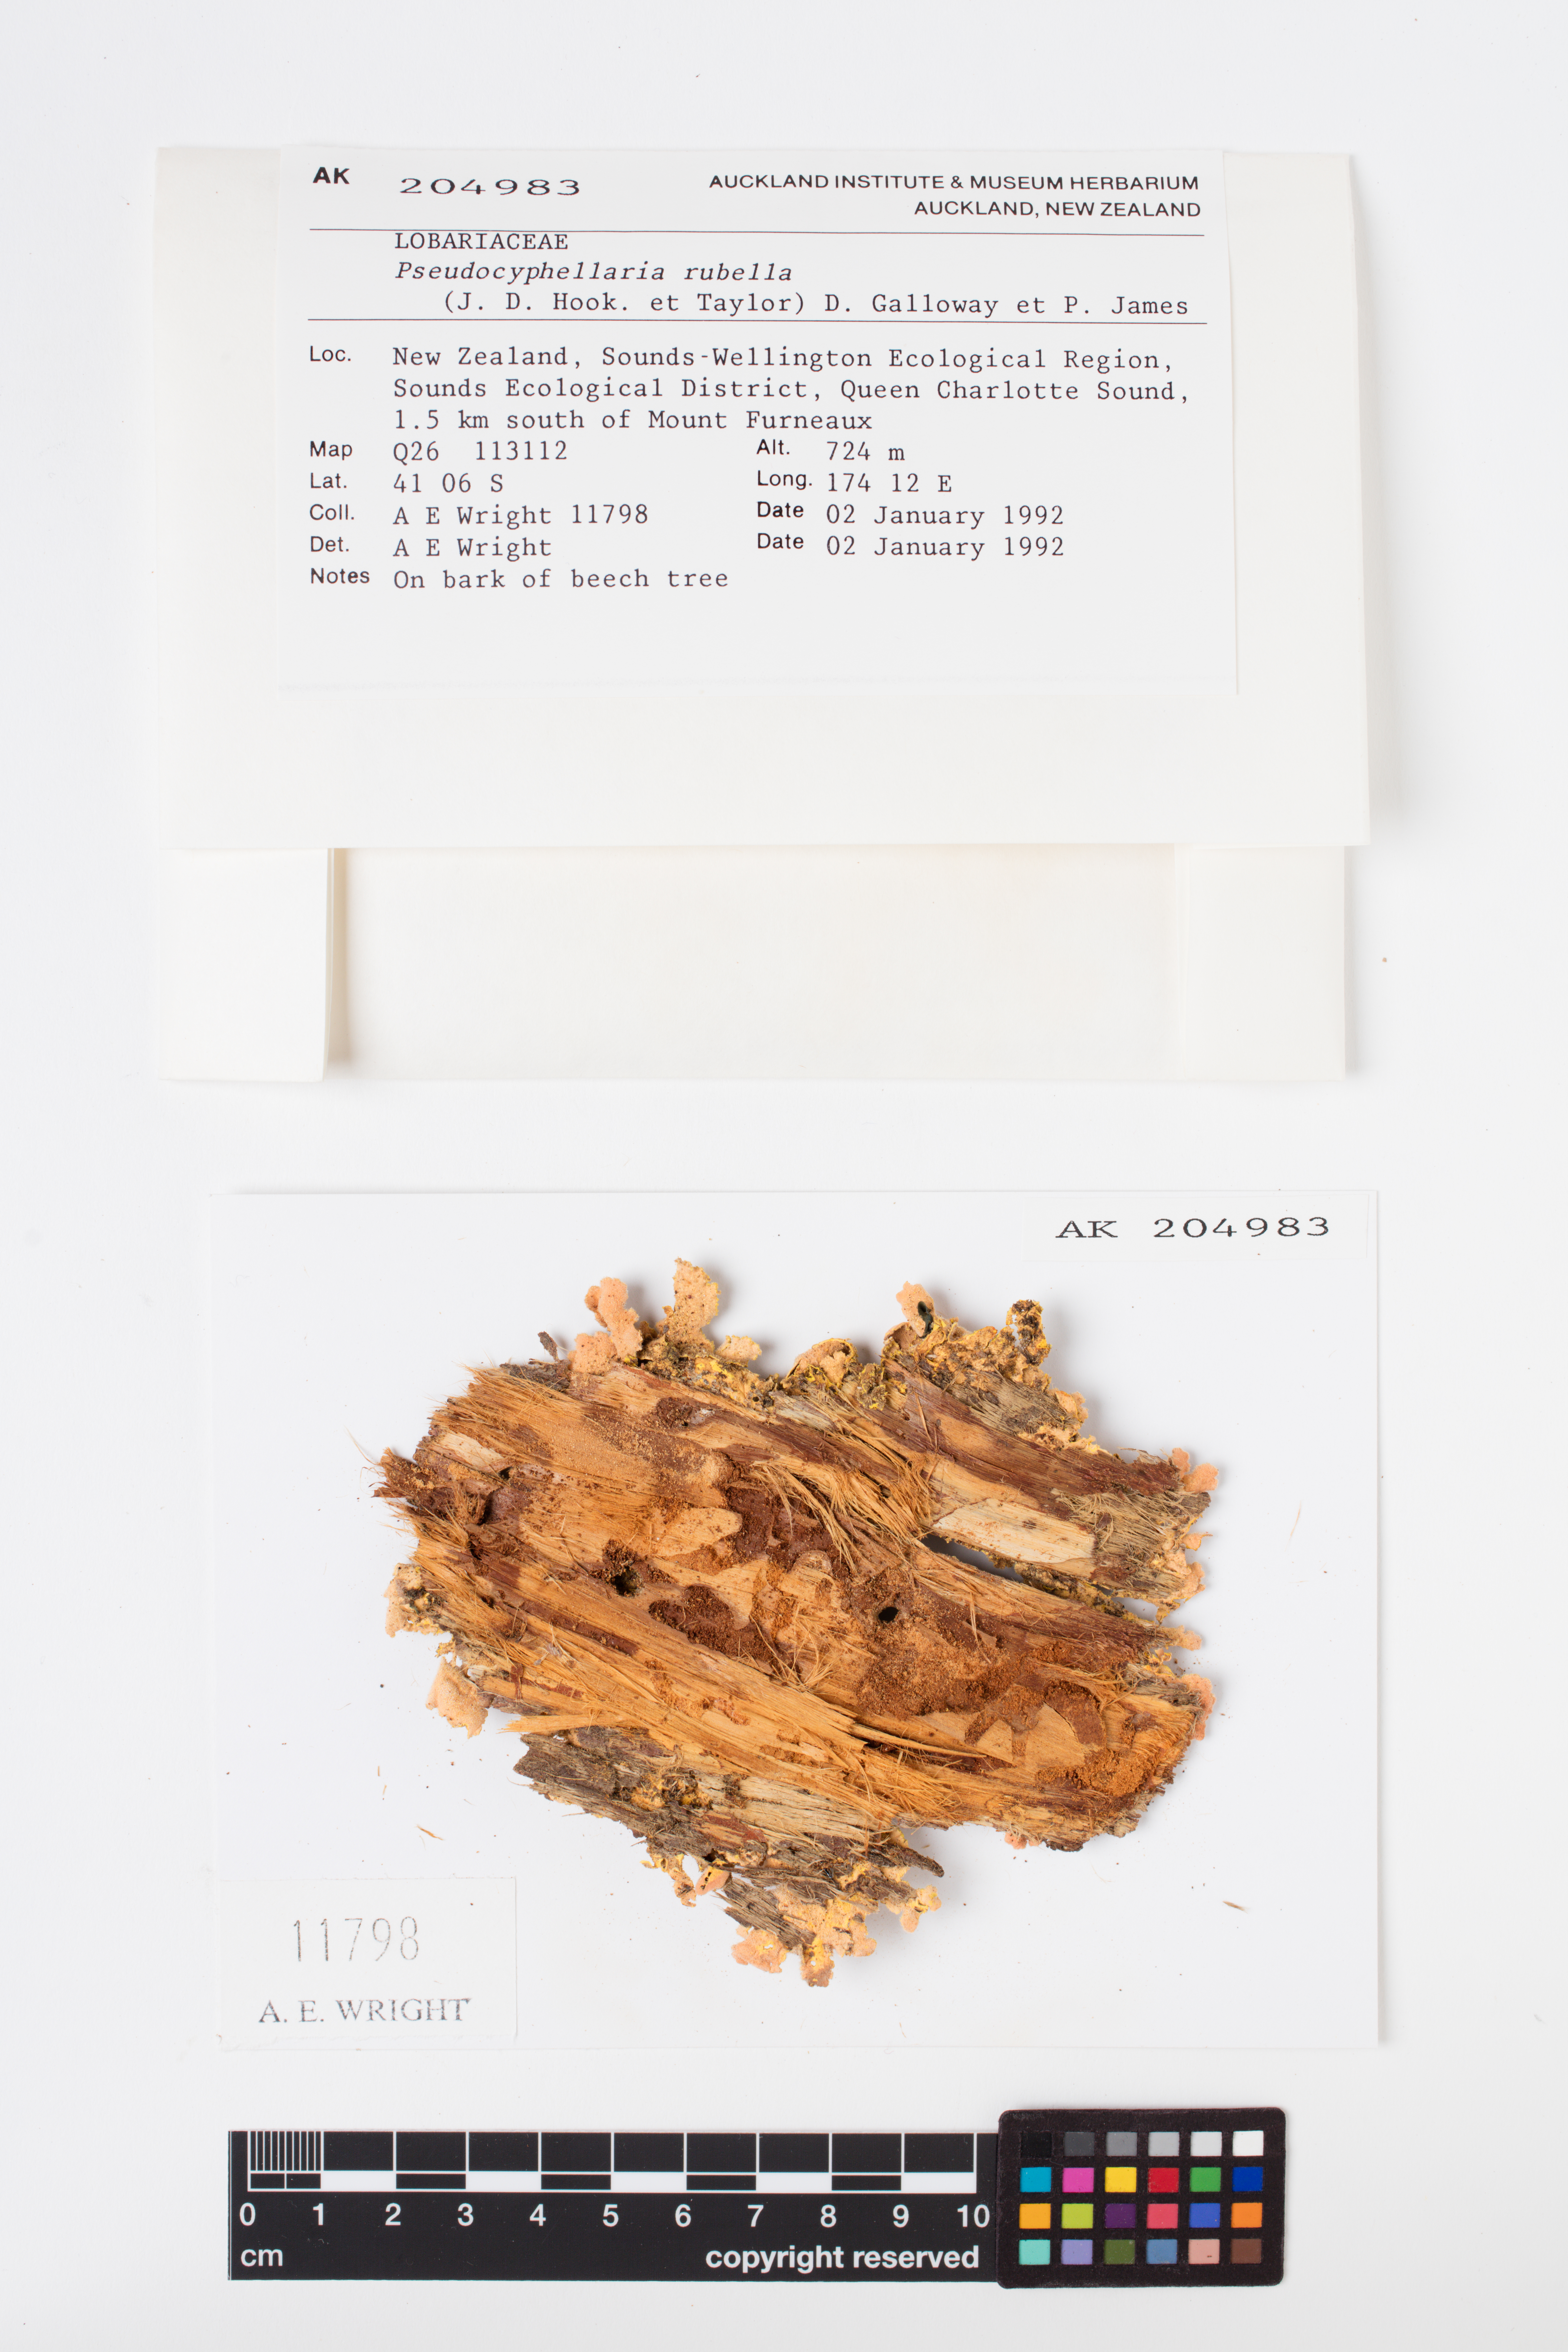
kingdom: Fungi
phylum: Ascomycota
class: Lecanoromycetes
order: Peltigerales
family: Lobariaceae
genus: Pseudocyphellaria
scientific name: Pseudocyphellaria rubella
